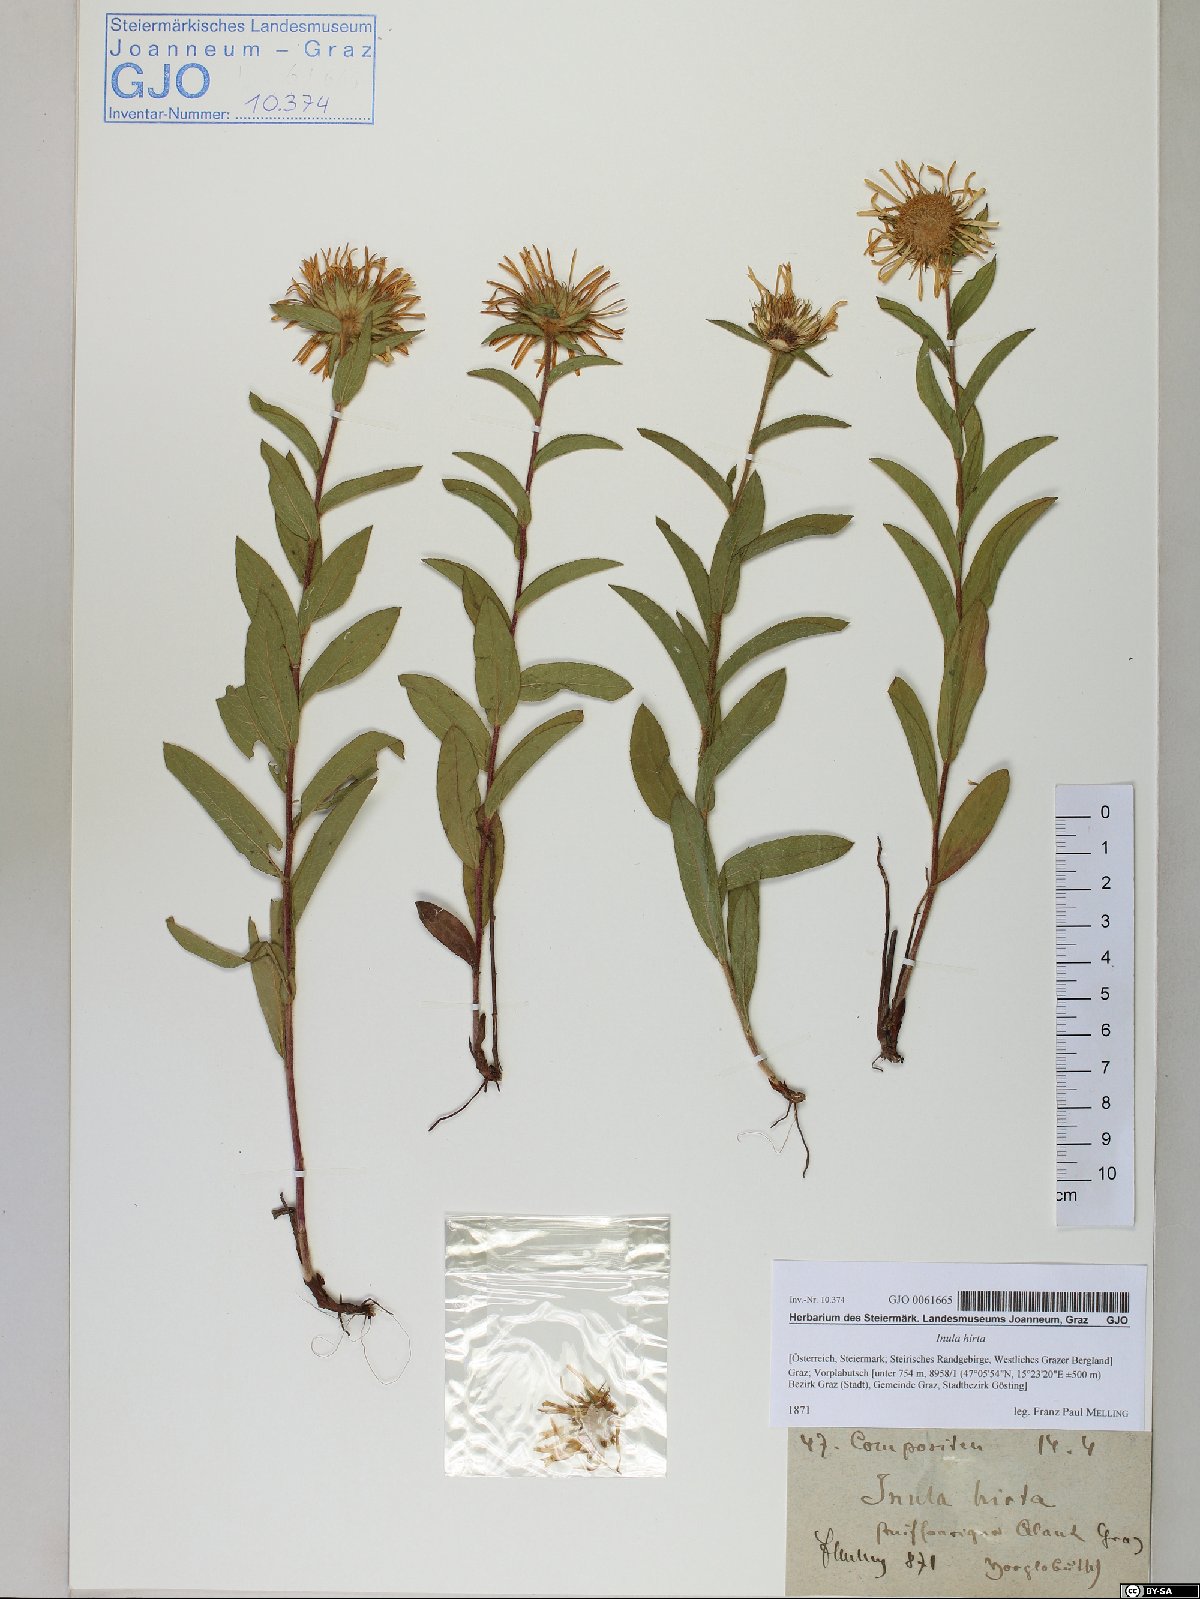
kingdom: Plantae
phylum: Tracheophyta
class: Magnoliopsida
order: Asterales
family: Asteraceae
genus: Pentanema
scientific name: Pentanema hirtum
